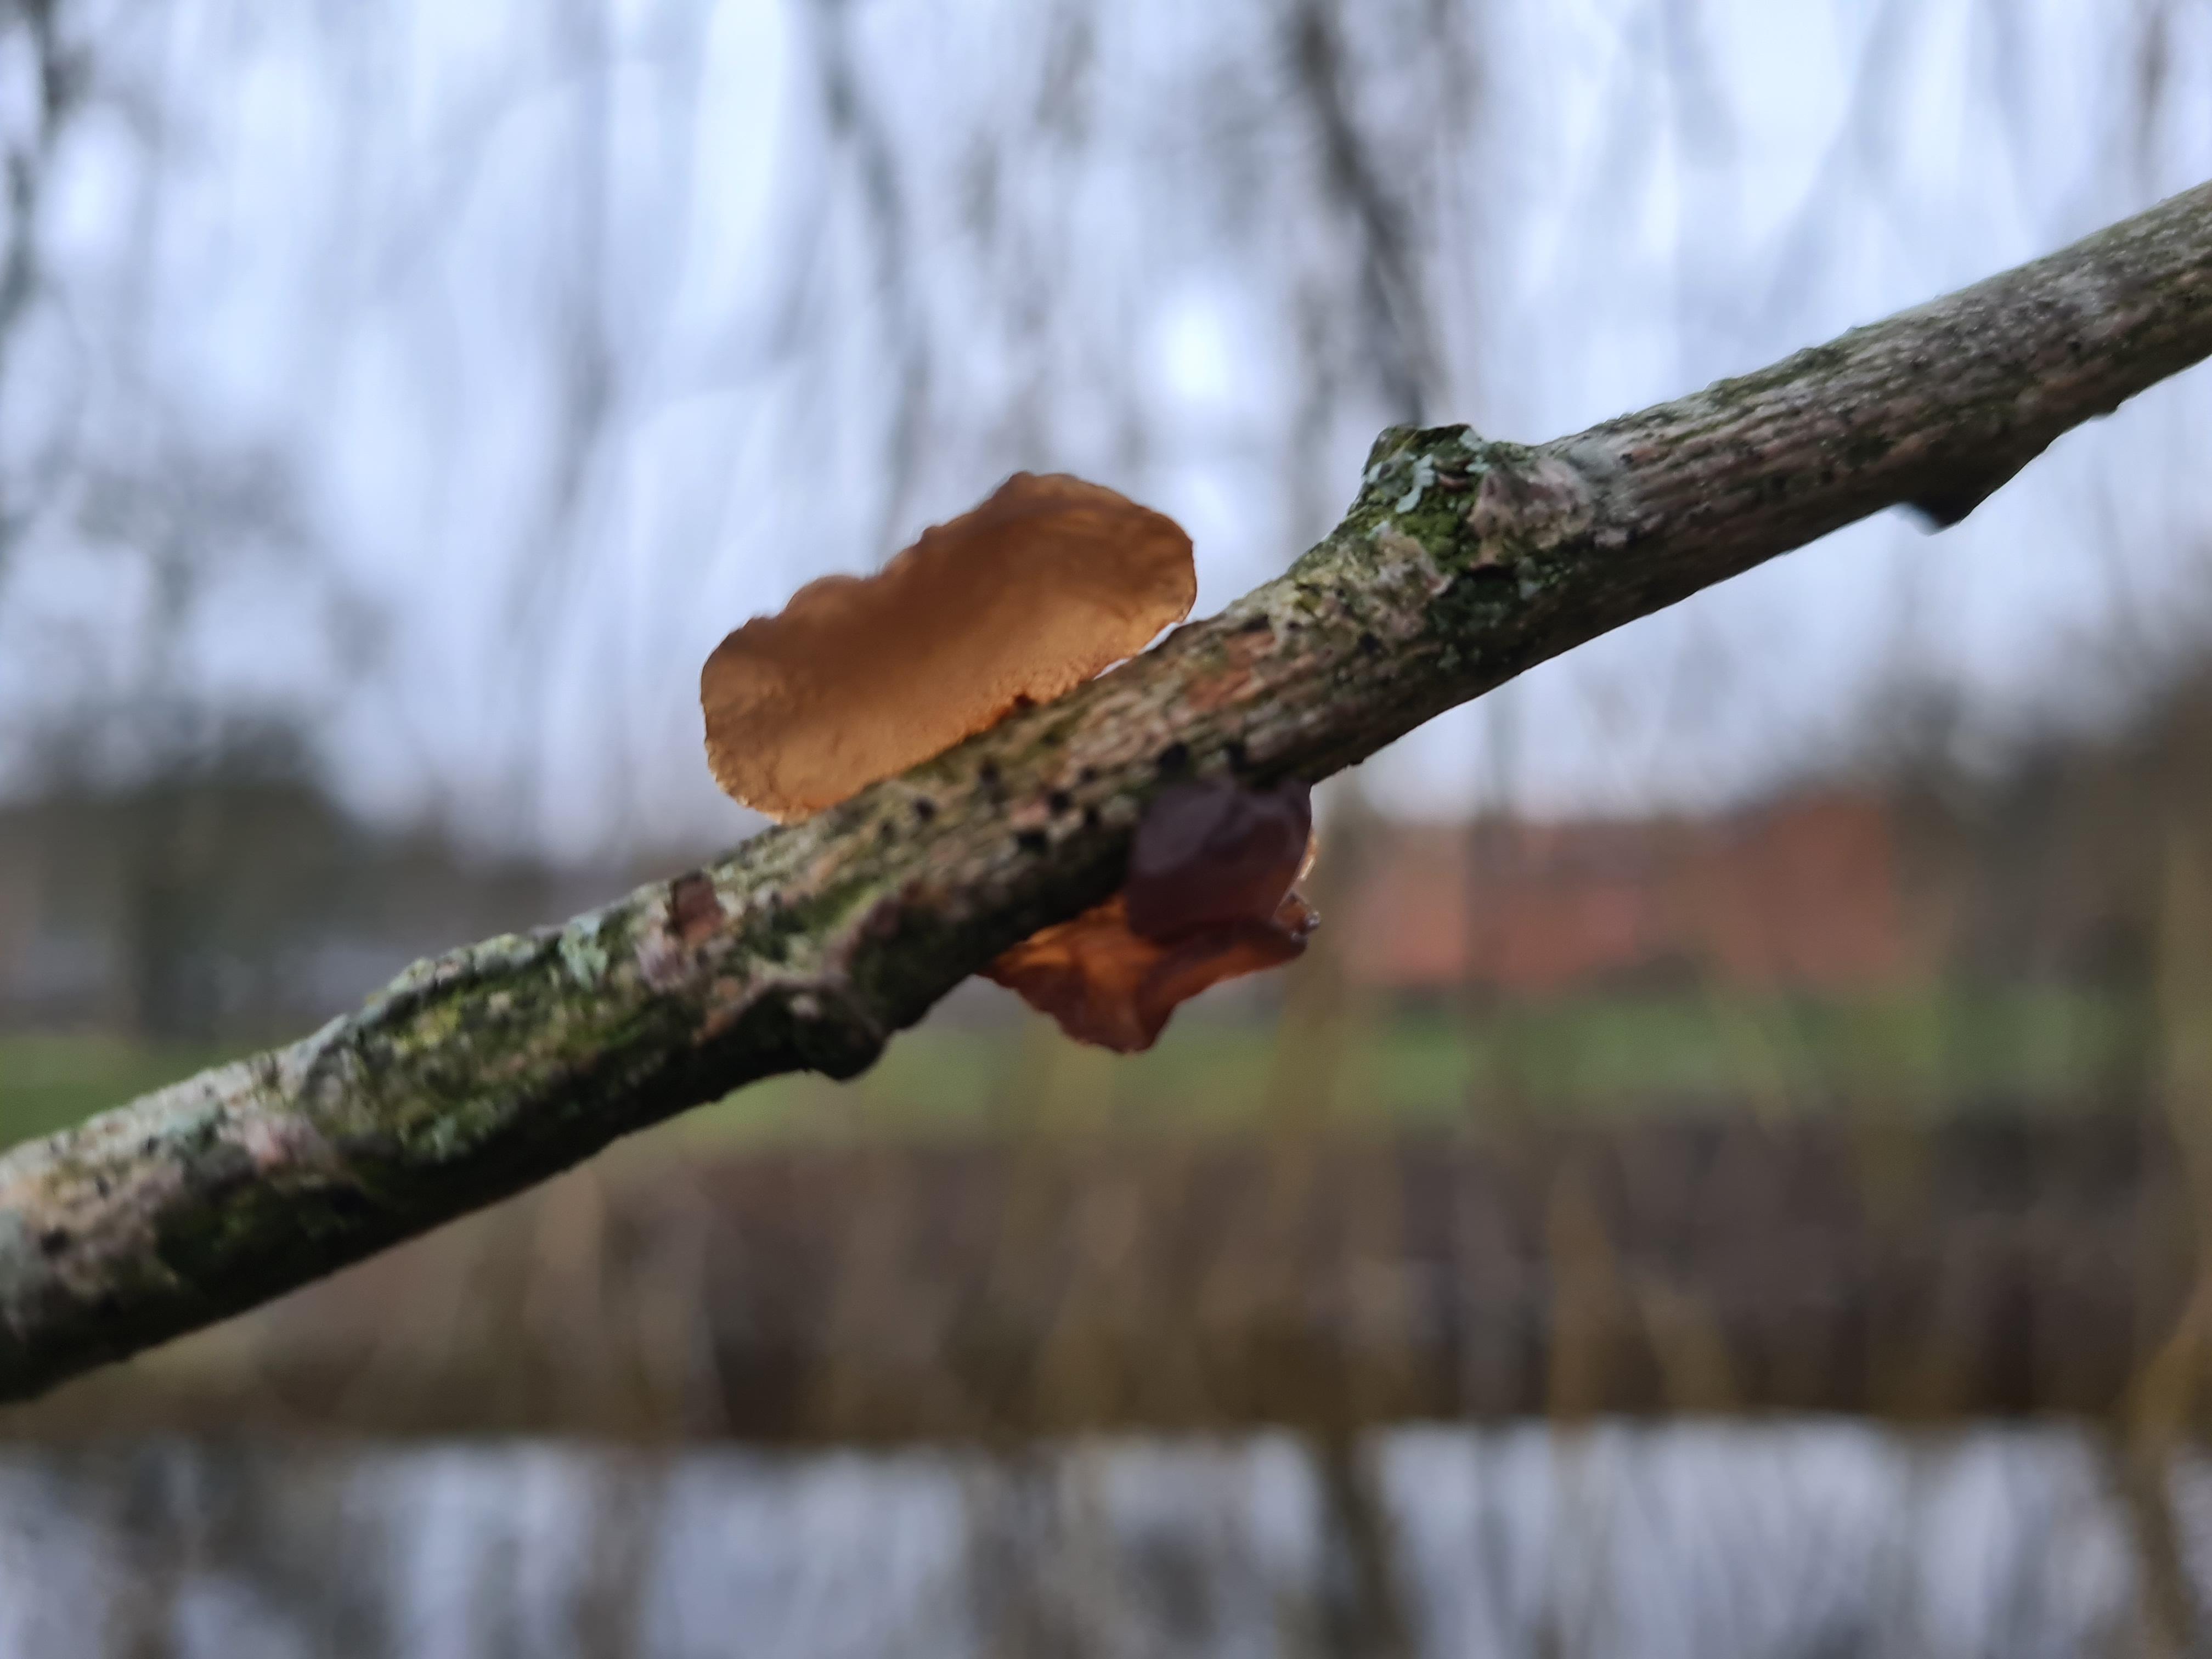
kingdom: Fungi
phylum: Basidiomycota
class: Agaricomycetes
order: Auriculariales
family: Auriculariaceae
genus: Exidia
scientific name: Exidia recisa
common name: pile-bævretop
